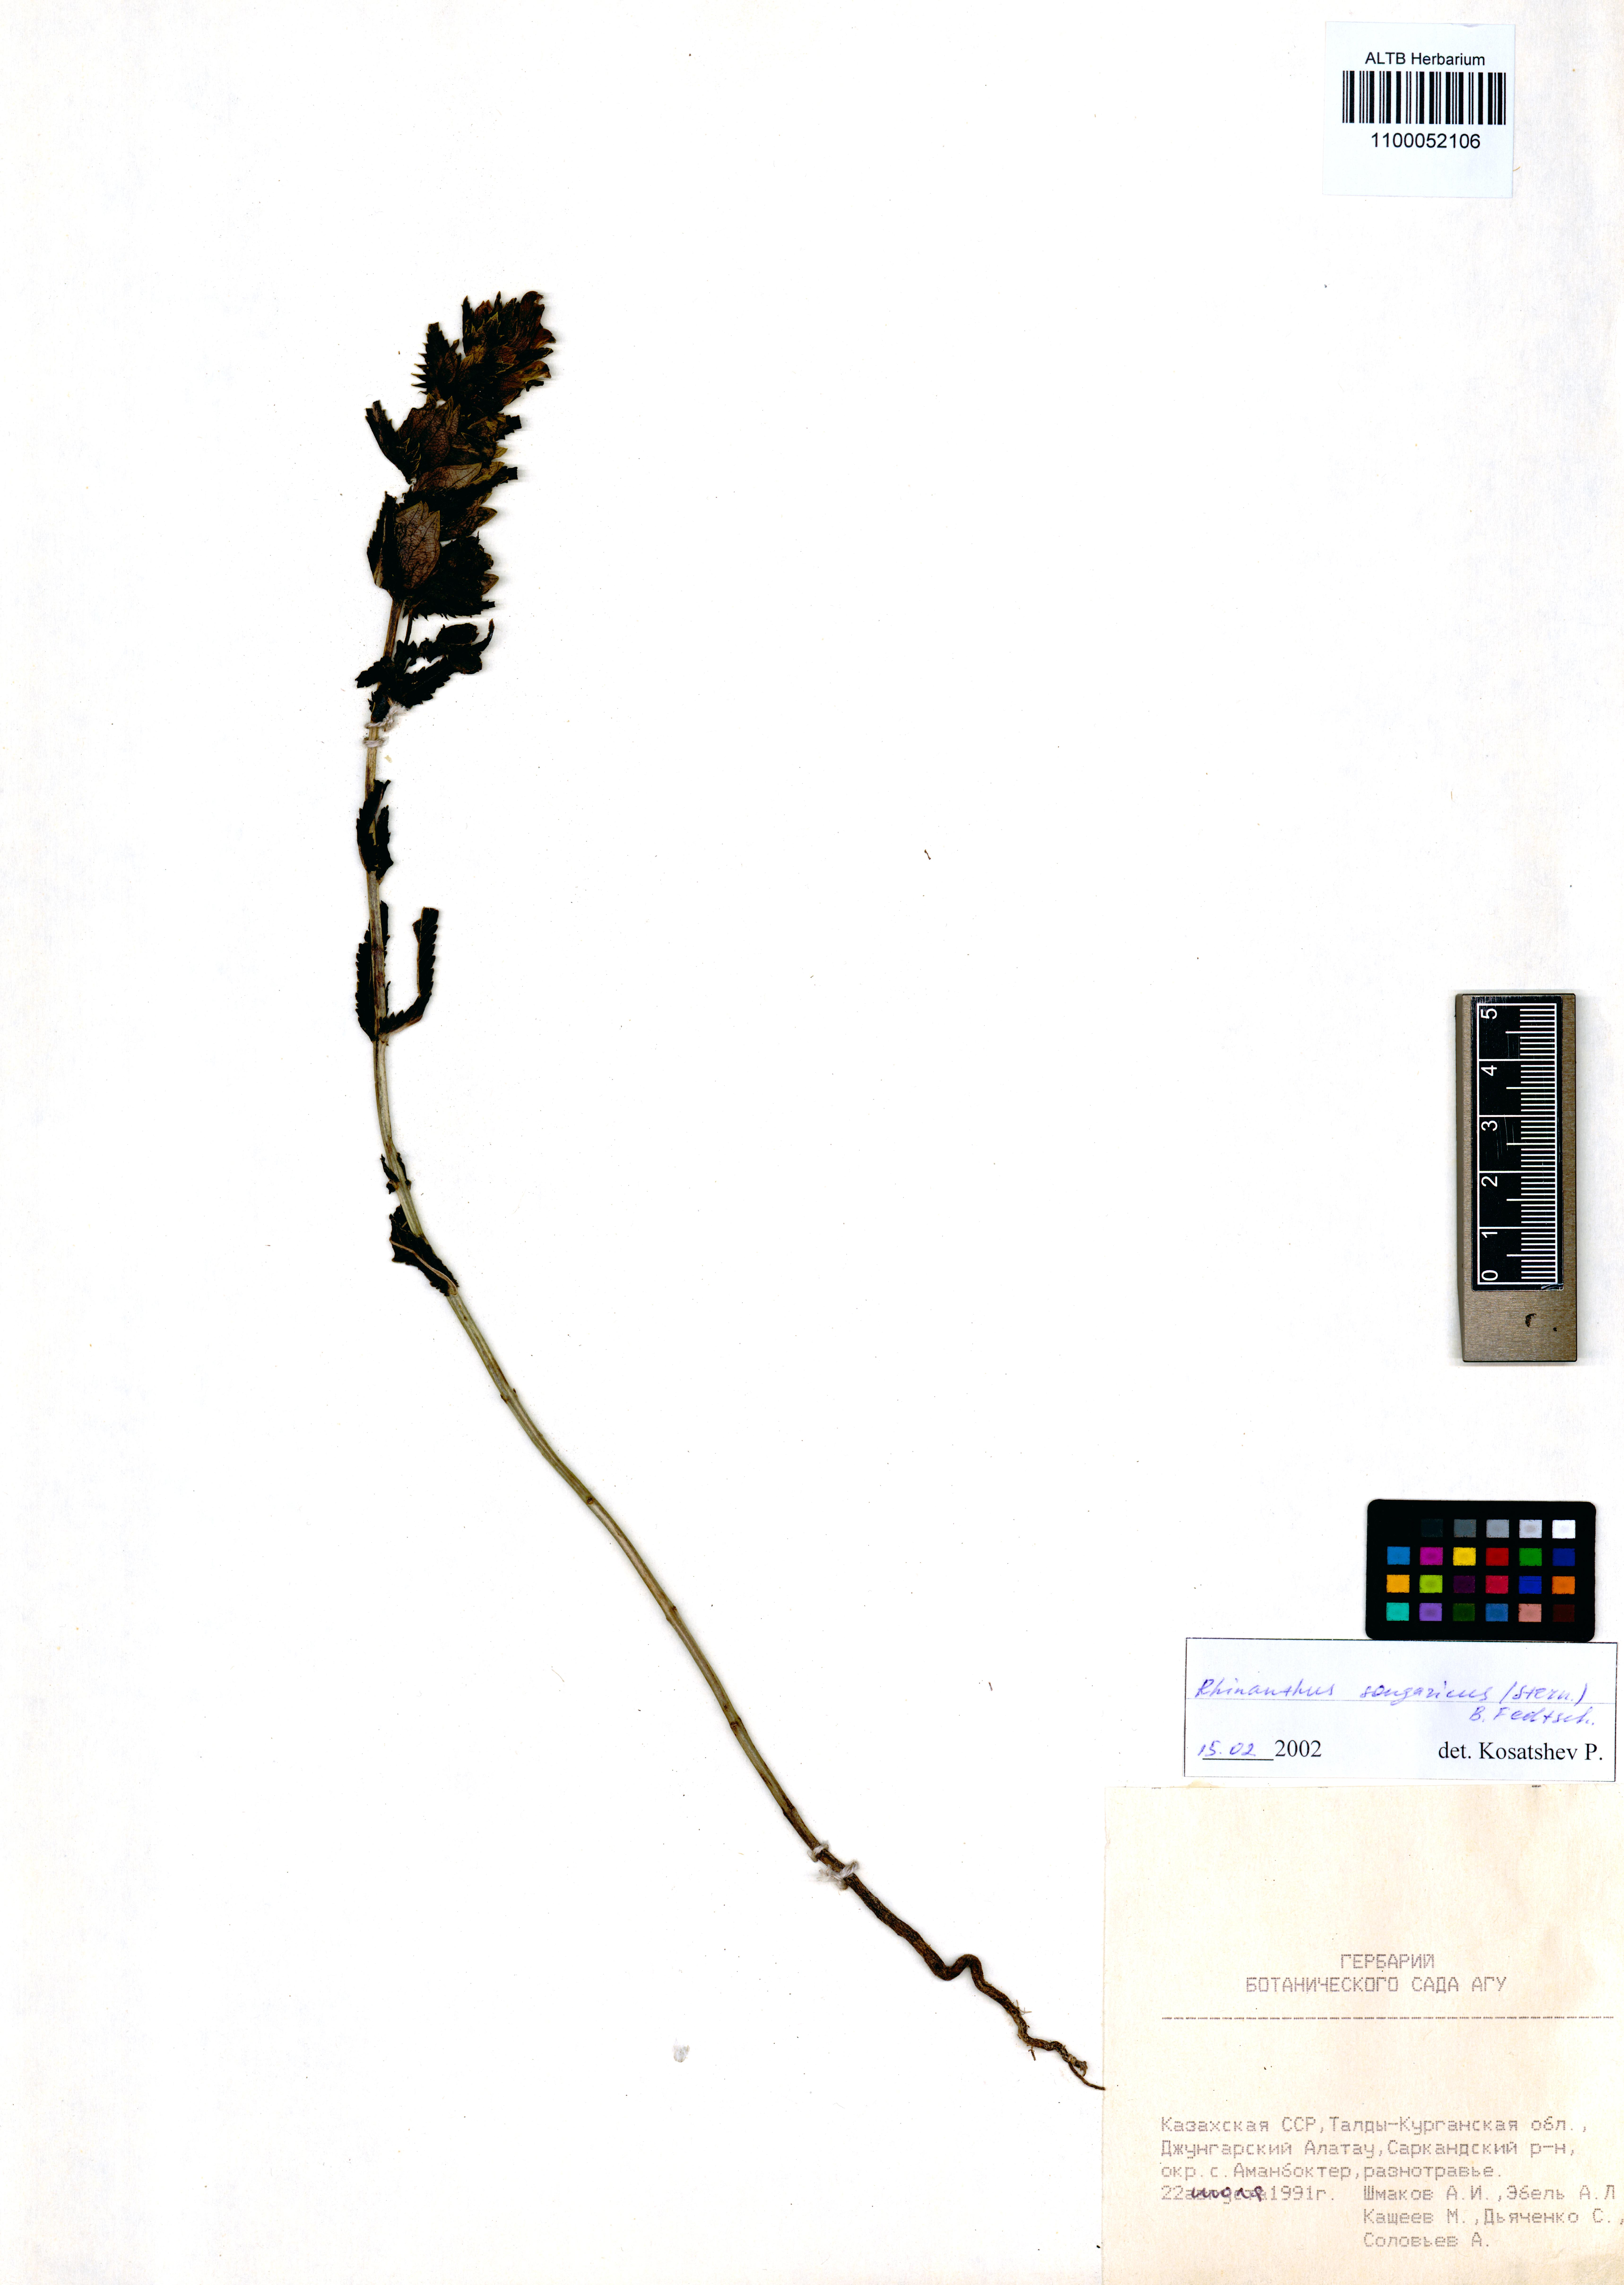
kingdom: Plantae
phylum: Tracheophyta
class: Magnoliopsida
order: Lamiales
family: Orobanchaceae
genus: Rhinanthus
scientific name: Rhinanthus songaricus
